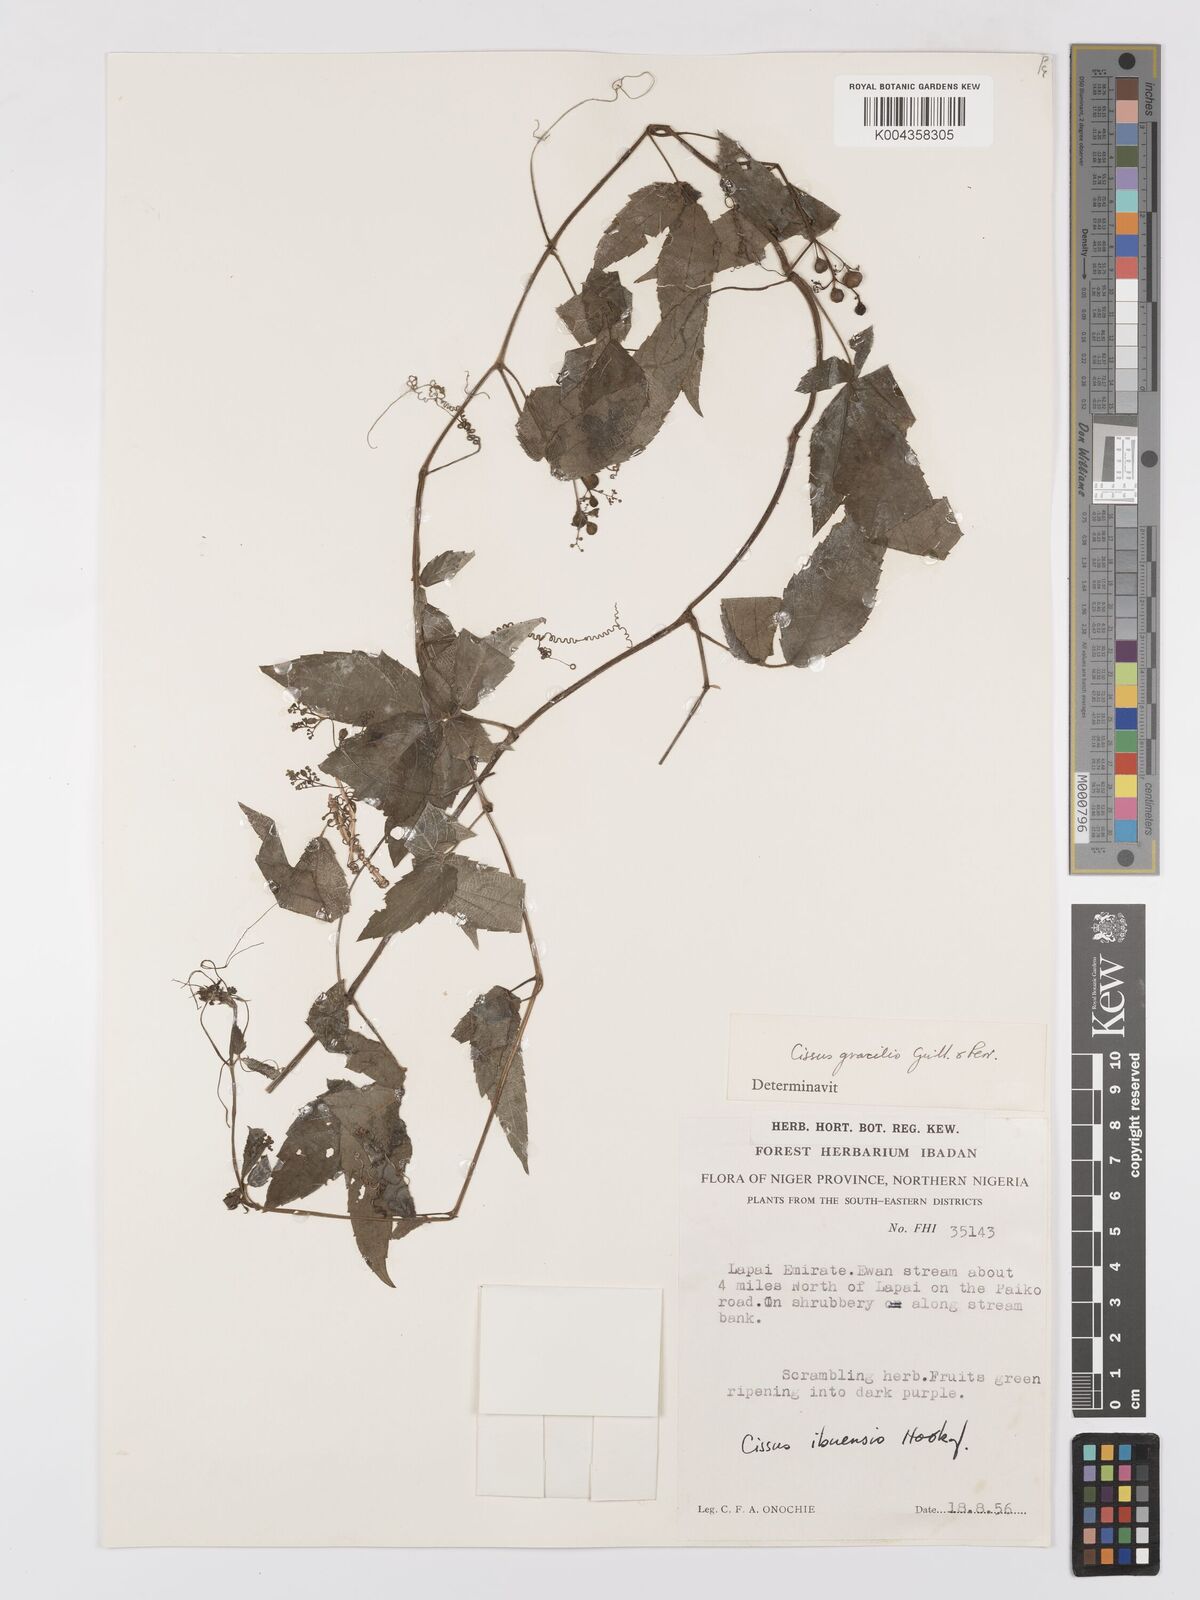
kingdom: Plantae
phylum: Tracheophyta
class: Magnoliopsida
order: Vitales
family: Vitaceae
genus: Afrocayratia
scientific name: Afrocayratia gracilis
